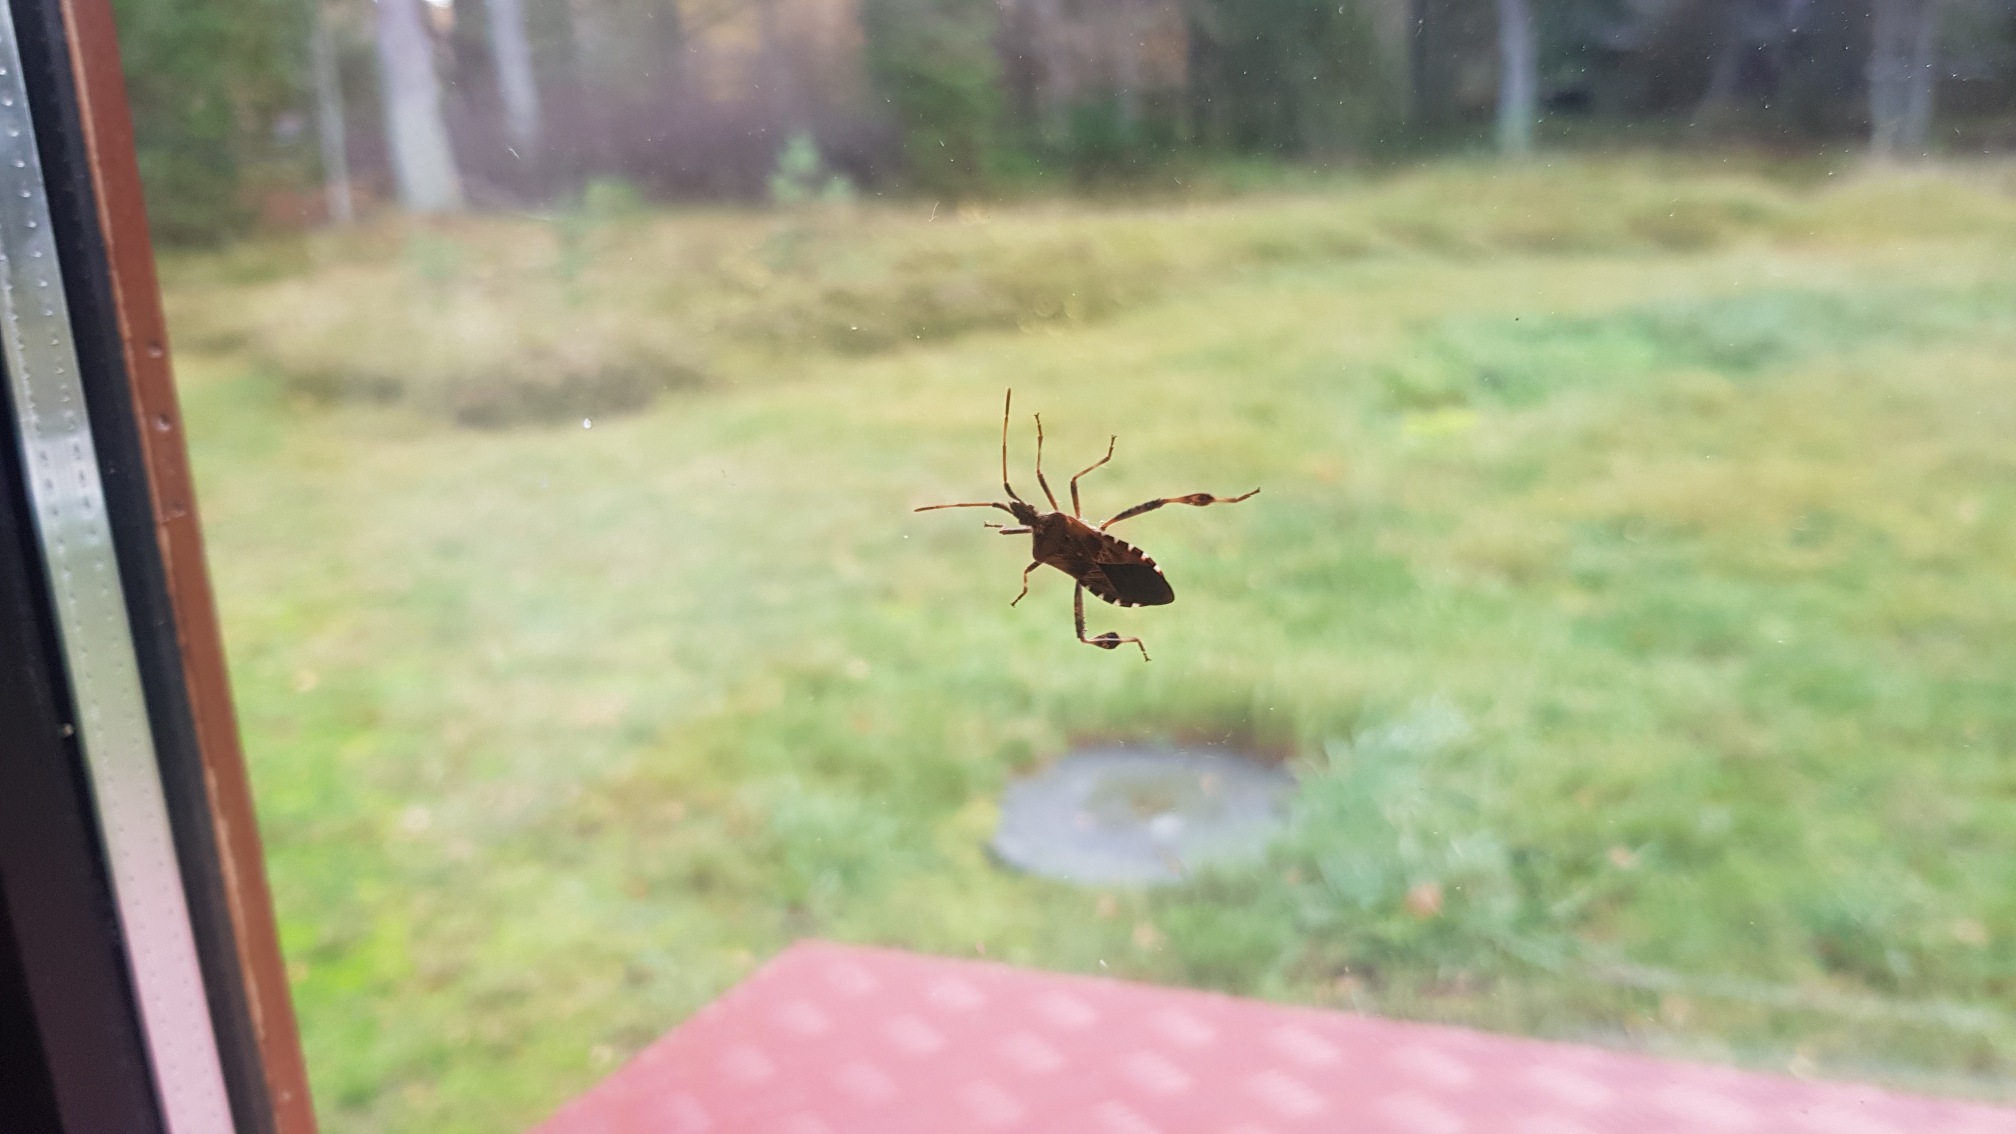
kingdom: Animalia
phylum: Arthropoda
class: Insecta
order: Hemiptera
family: Coreidae
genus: Leptoglossus
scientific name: Leptoglossus occidentalis
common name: Amerikansk fyrretæge
